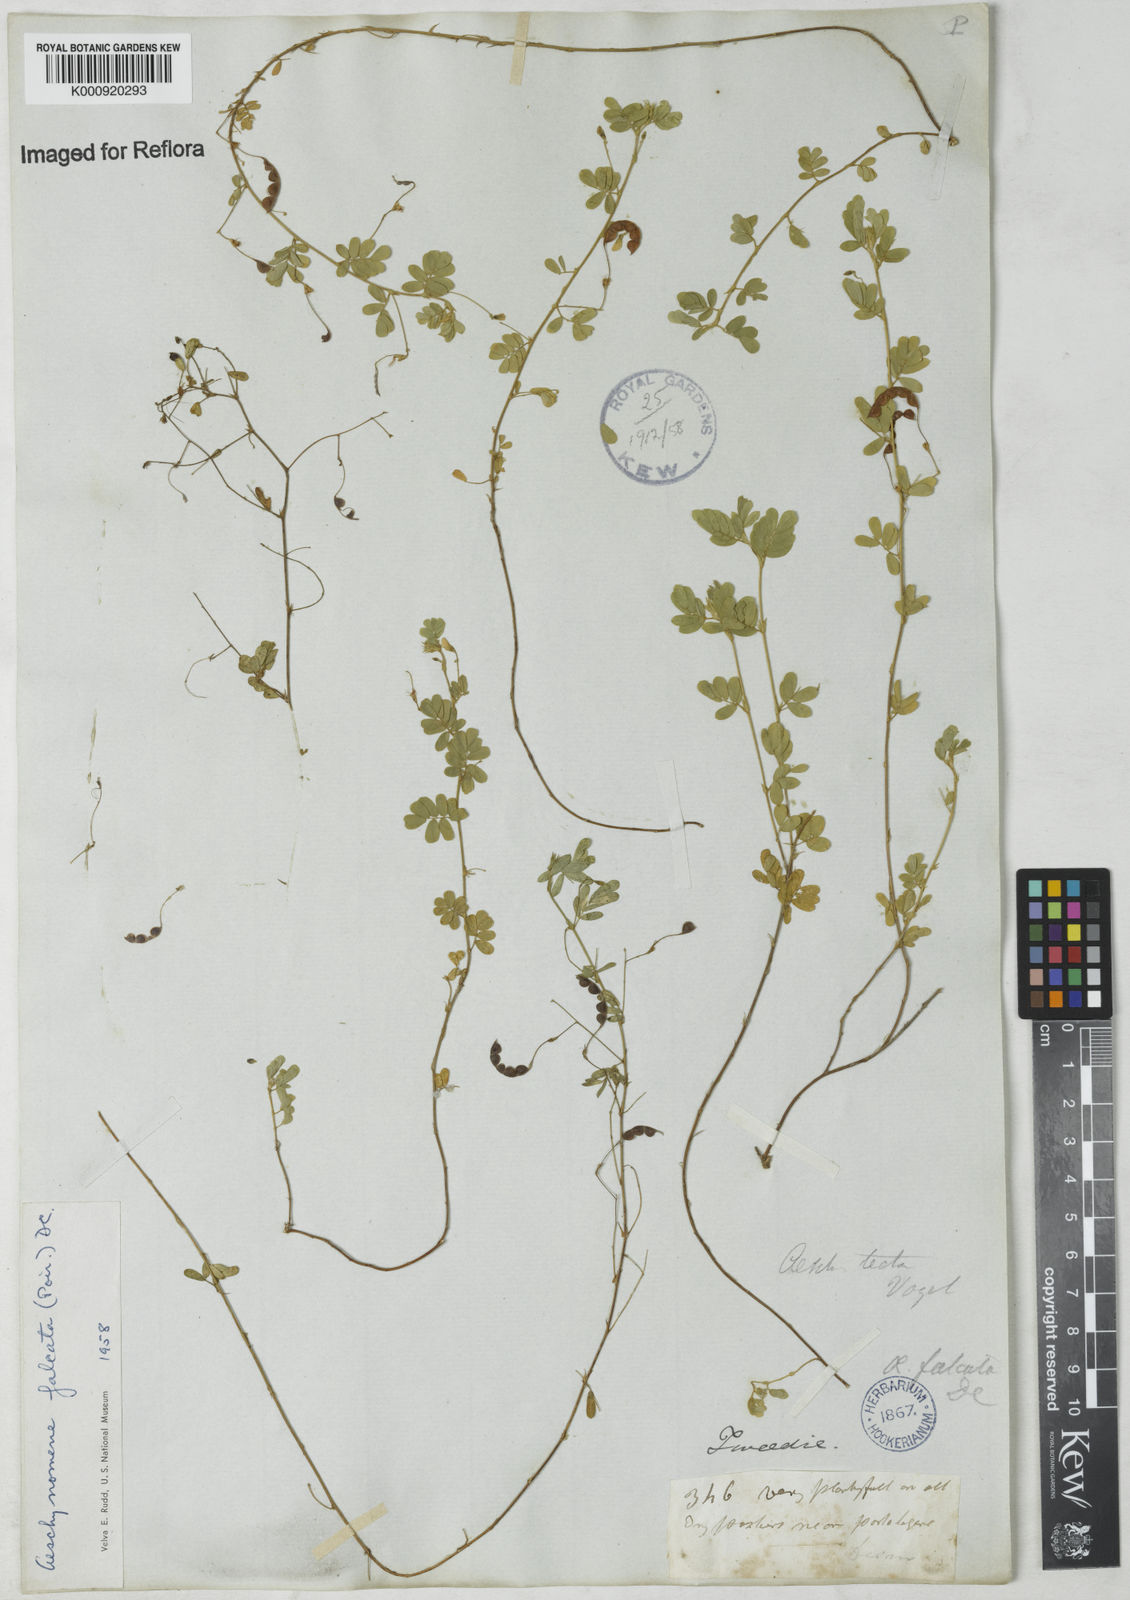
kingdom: Plantae
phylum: Tracheophyta
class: Magnoliopsida
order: Fabales
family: Fabaceae
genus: Aeschynomene
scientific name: Aeschynomene
